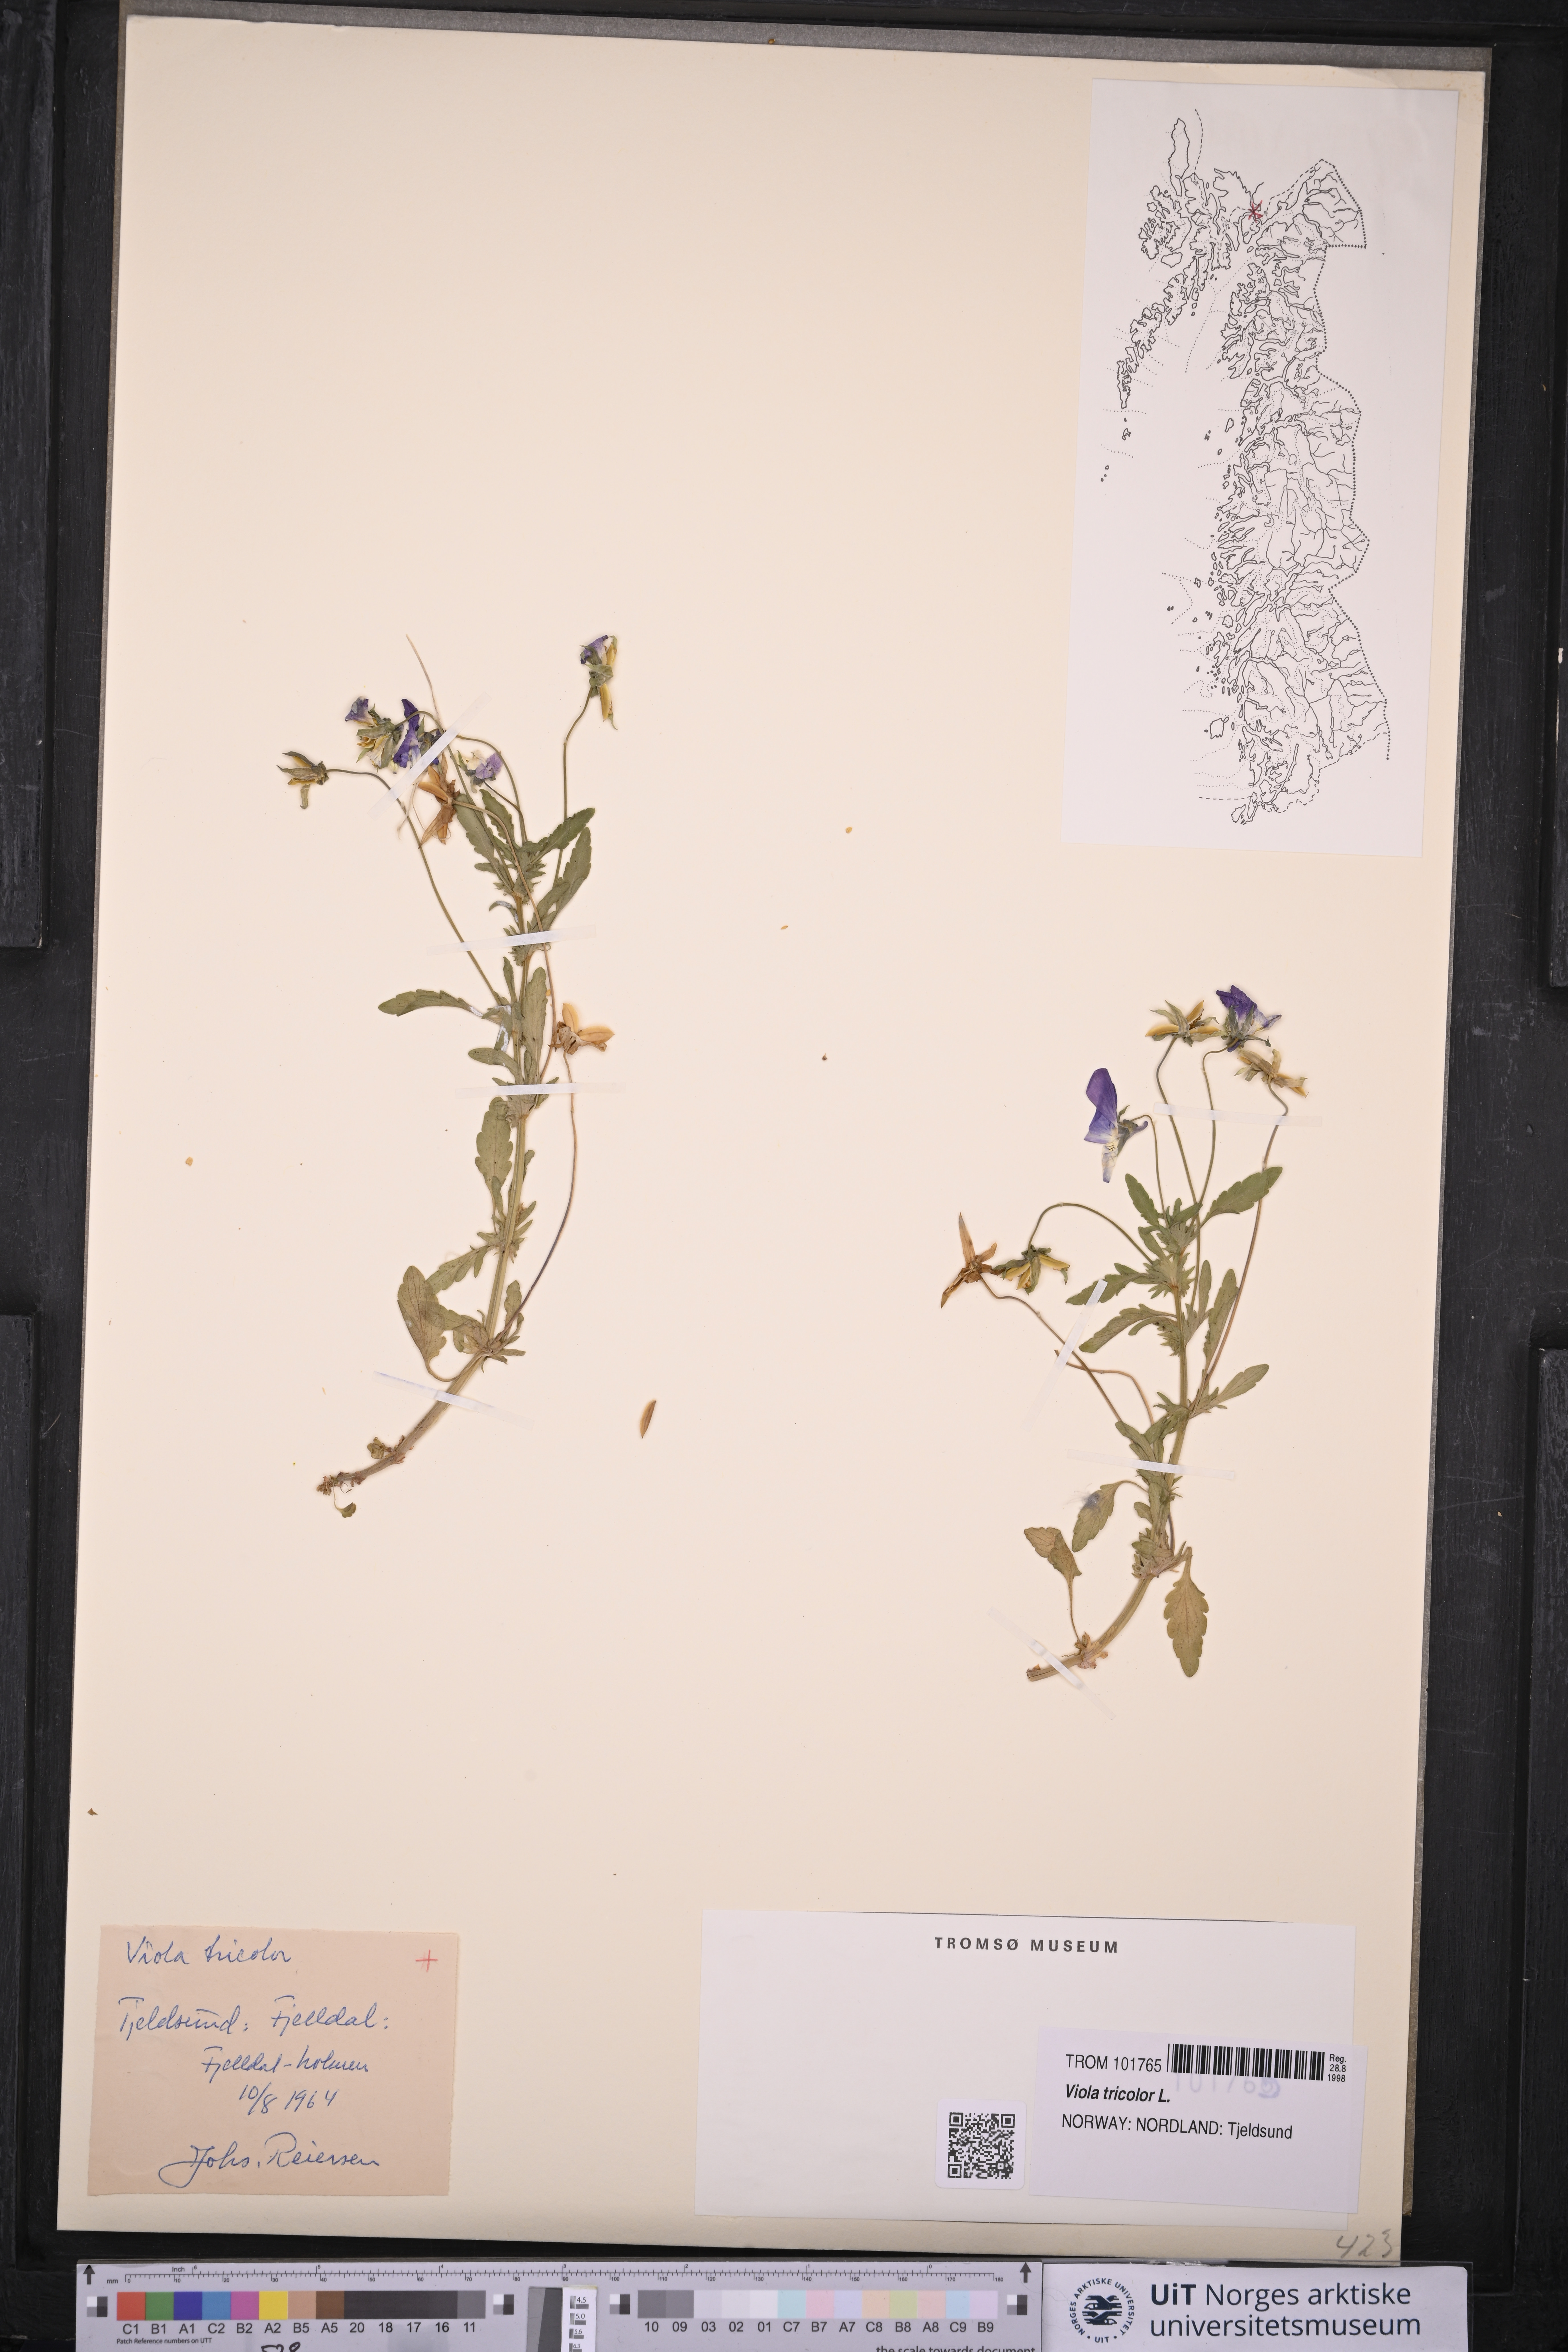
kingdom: Plantae
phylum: Tracheophyta
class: Magnoliopsida
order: Malpighiales
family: Violaceae
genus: Viola
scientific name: Viola tricolor
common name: Pansy
